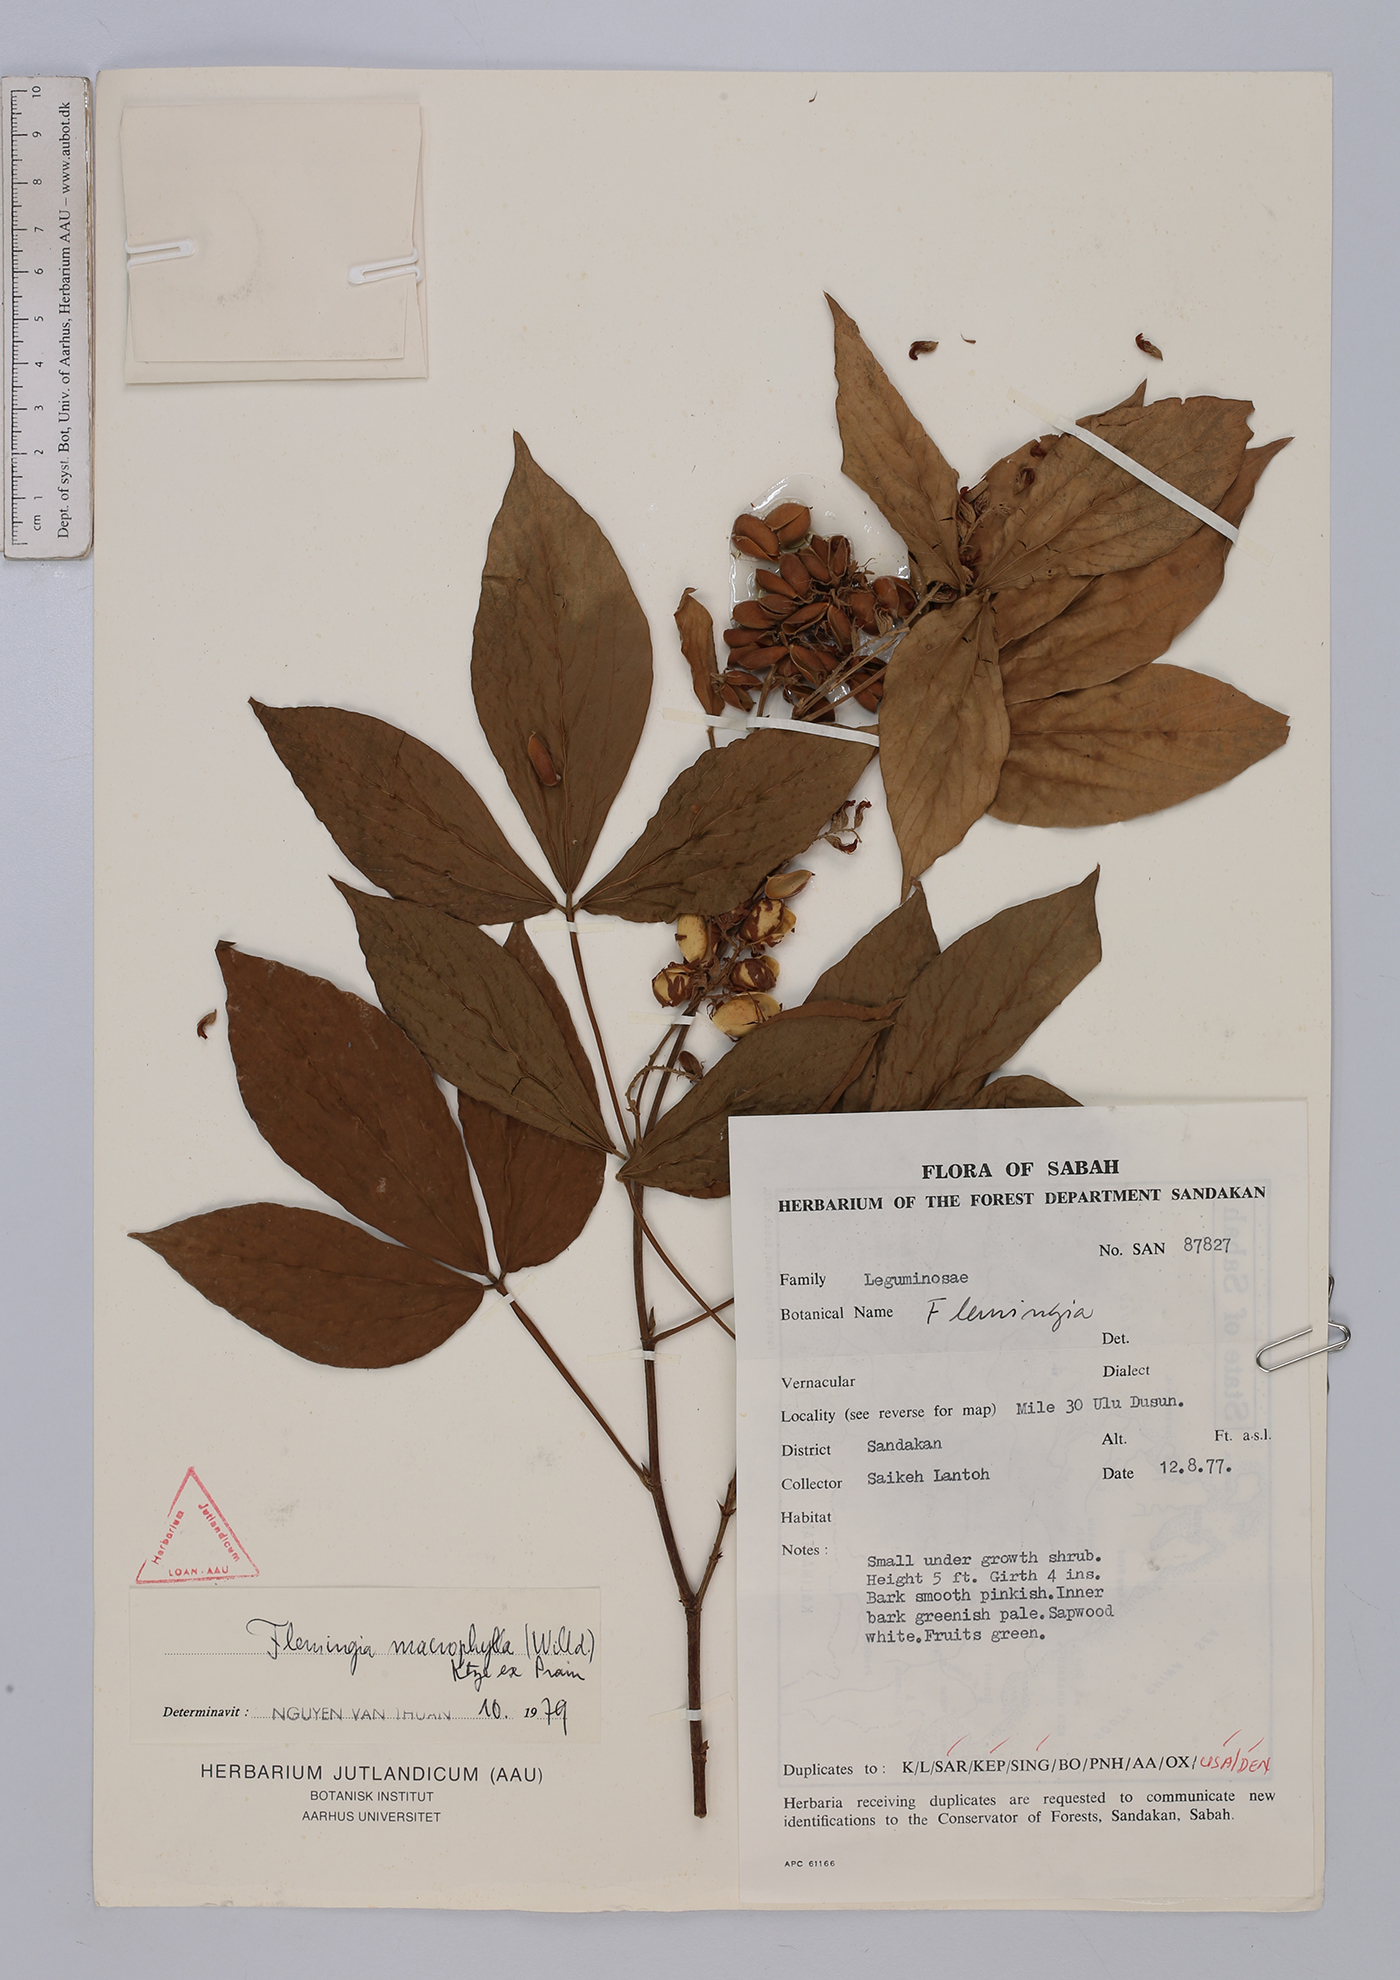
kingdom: Plantae
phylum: Tracheophyta
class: Magnoliopsida
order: Fabales
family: Fabaceae
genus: Flemingia
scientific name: Flemingia macrophylla
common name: Flemingia
